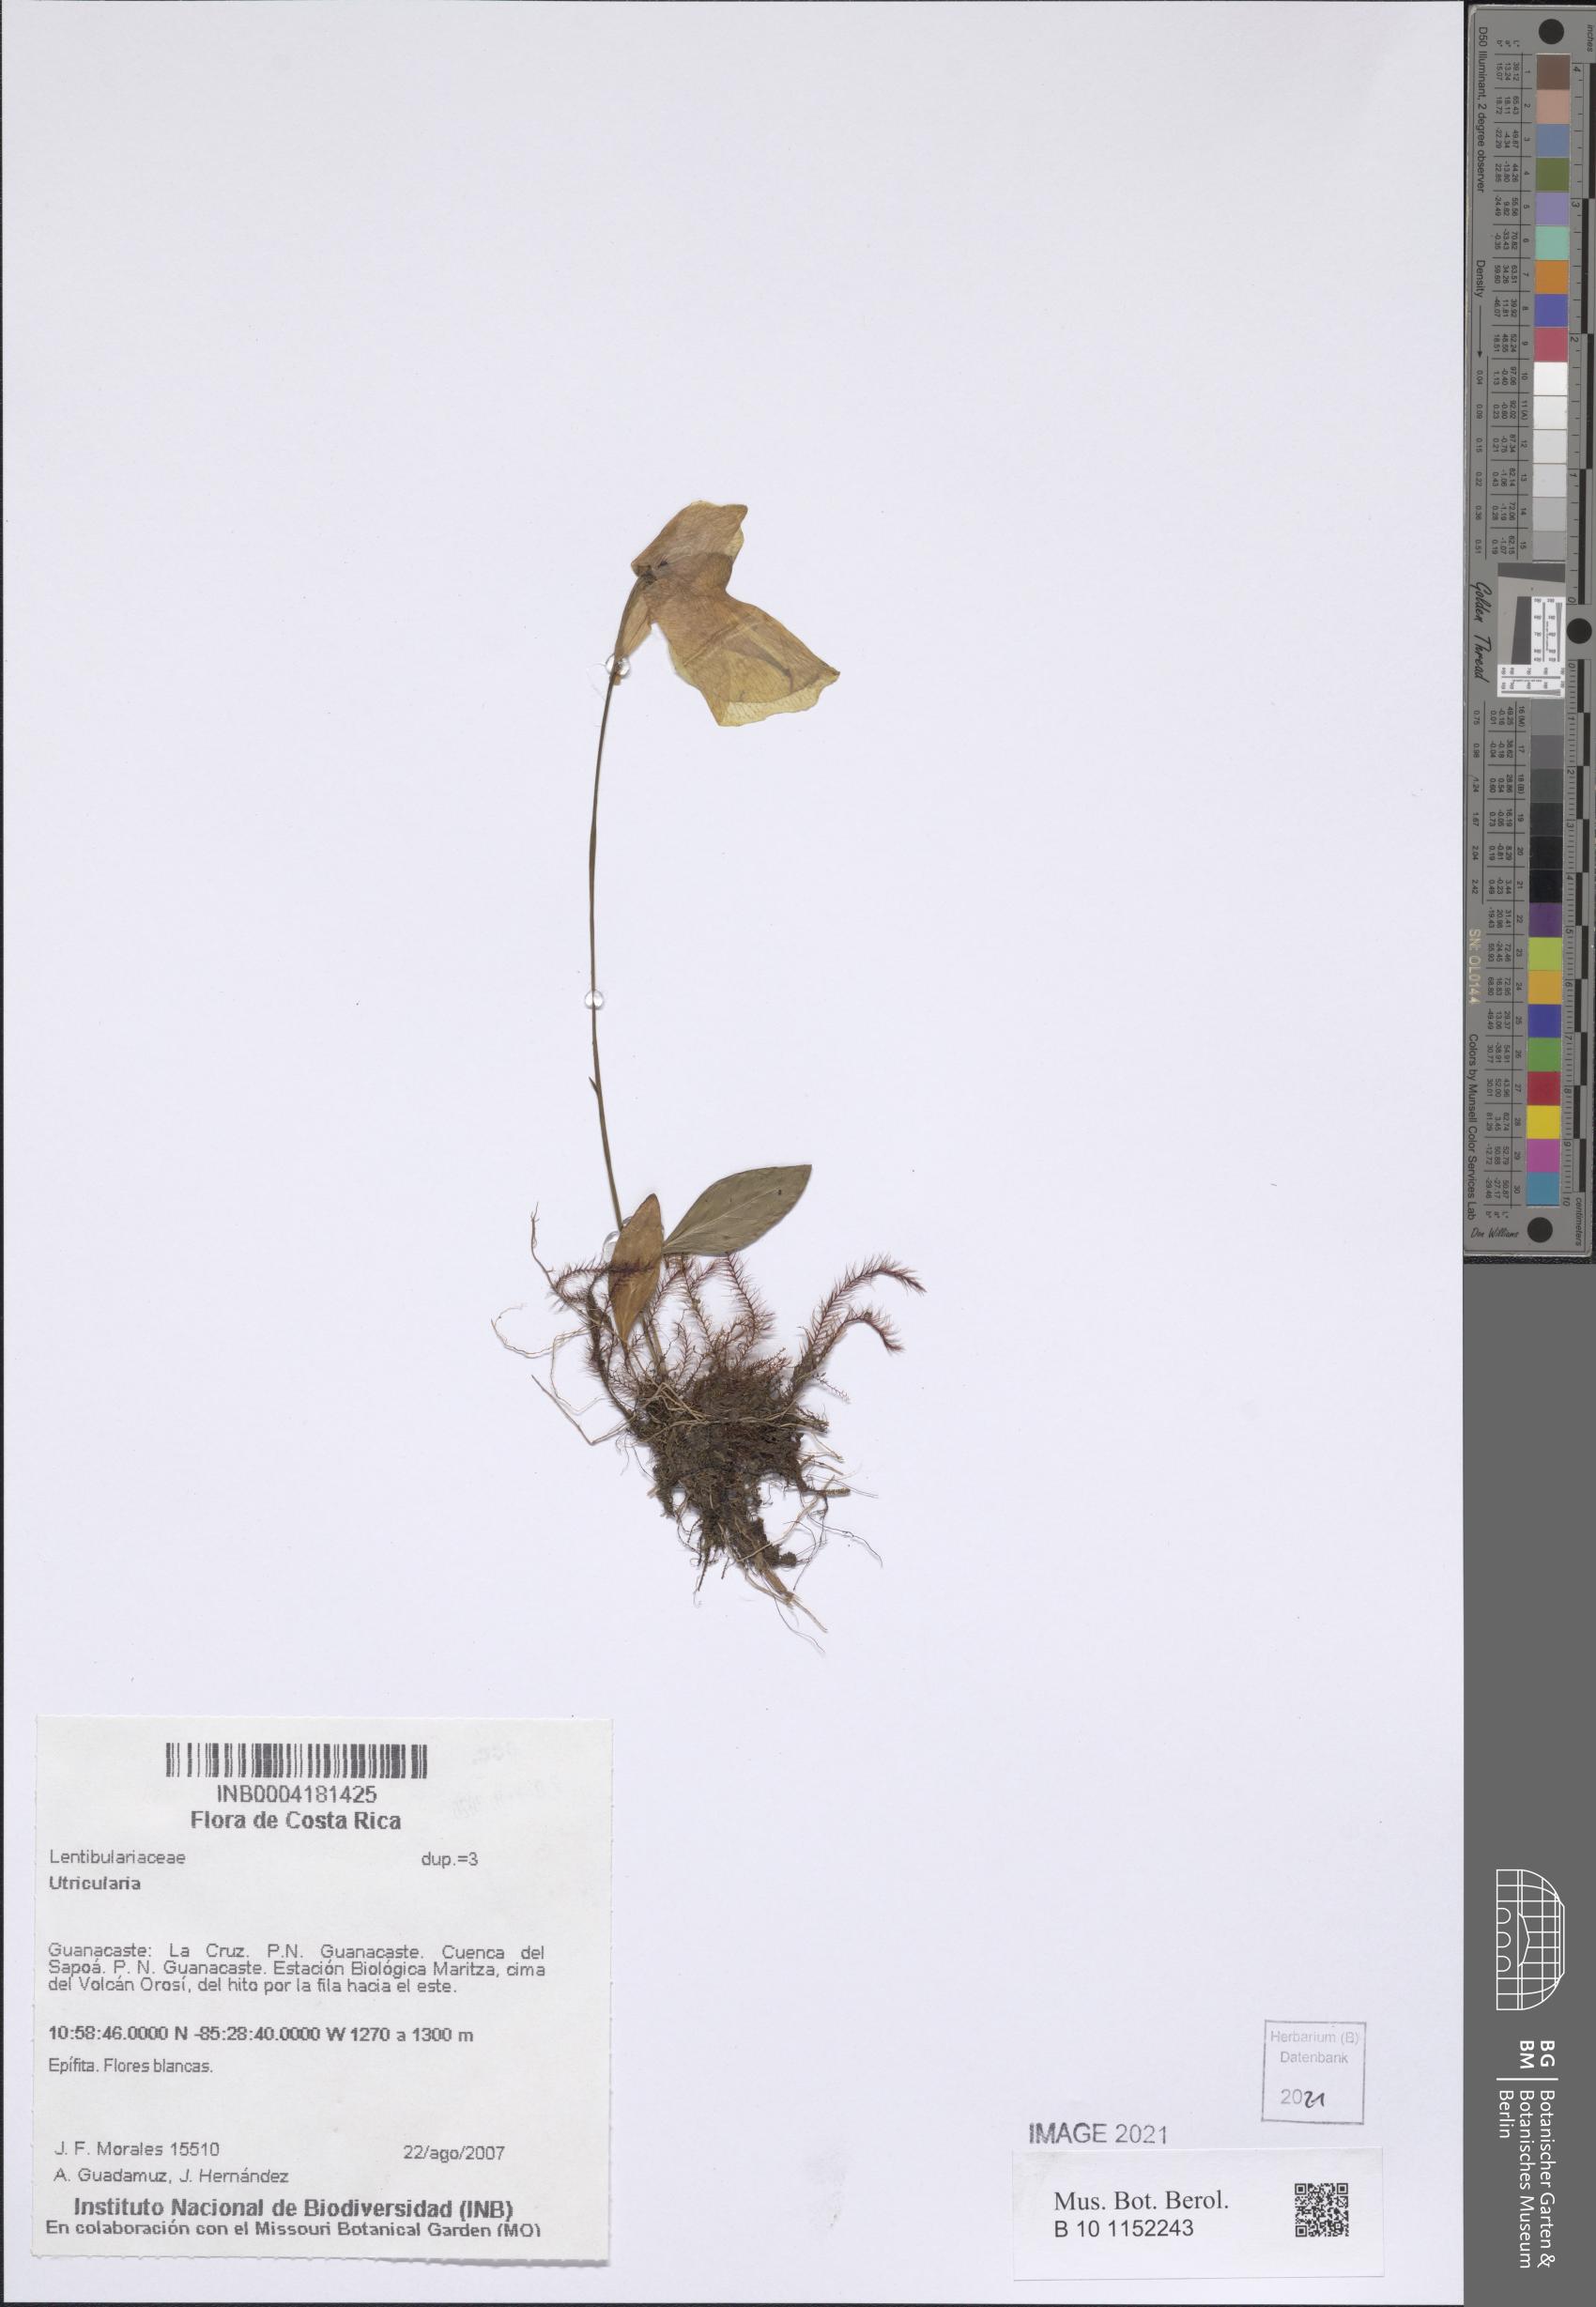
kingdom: Plantae
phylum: Tracheophyta
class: Magnoliopsida
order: Lamiales
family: Lentibulariaceae
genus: Utricularia
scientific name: Utricularia
